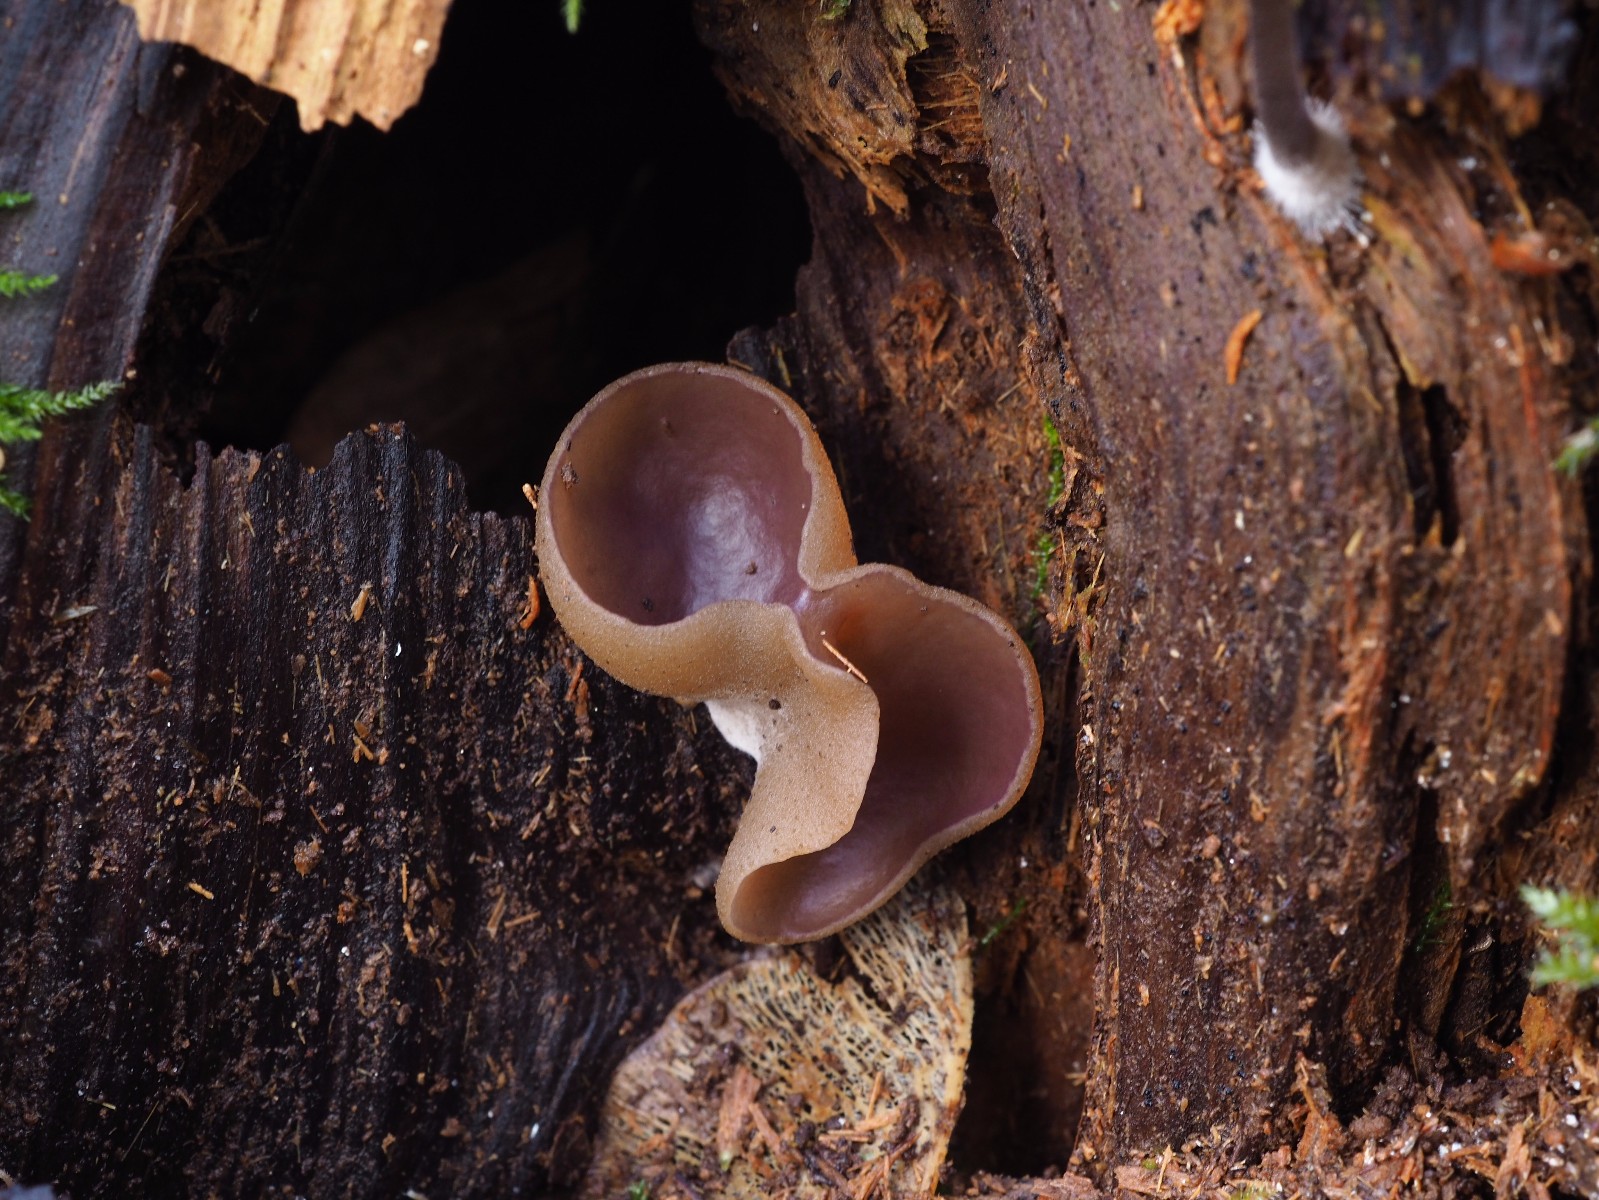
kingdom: Fungi
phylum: Ascomycota
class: Pezizomycetes
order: Pezizales
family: Pezizaceae
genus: Paragalactinia
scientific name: Paragalactinia michelii
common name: gulkødet bægersvamp
